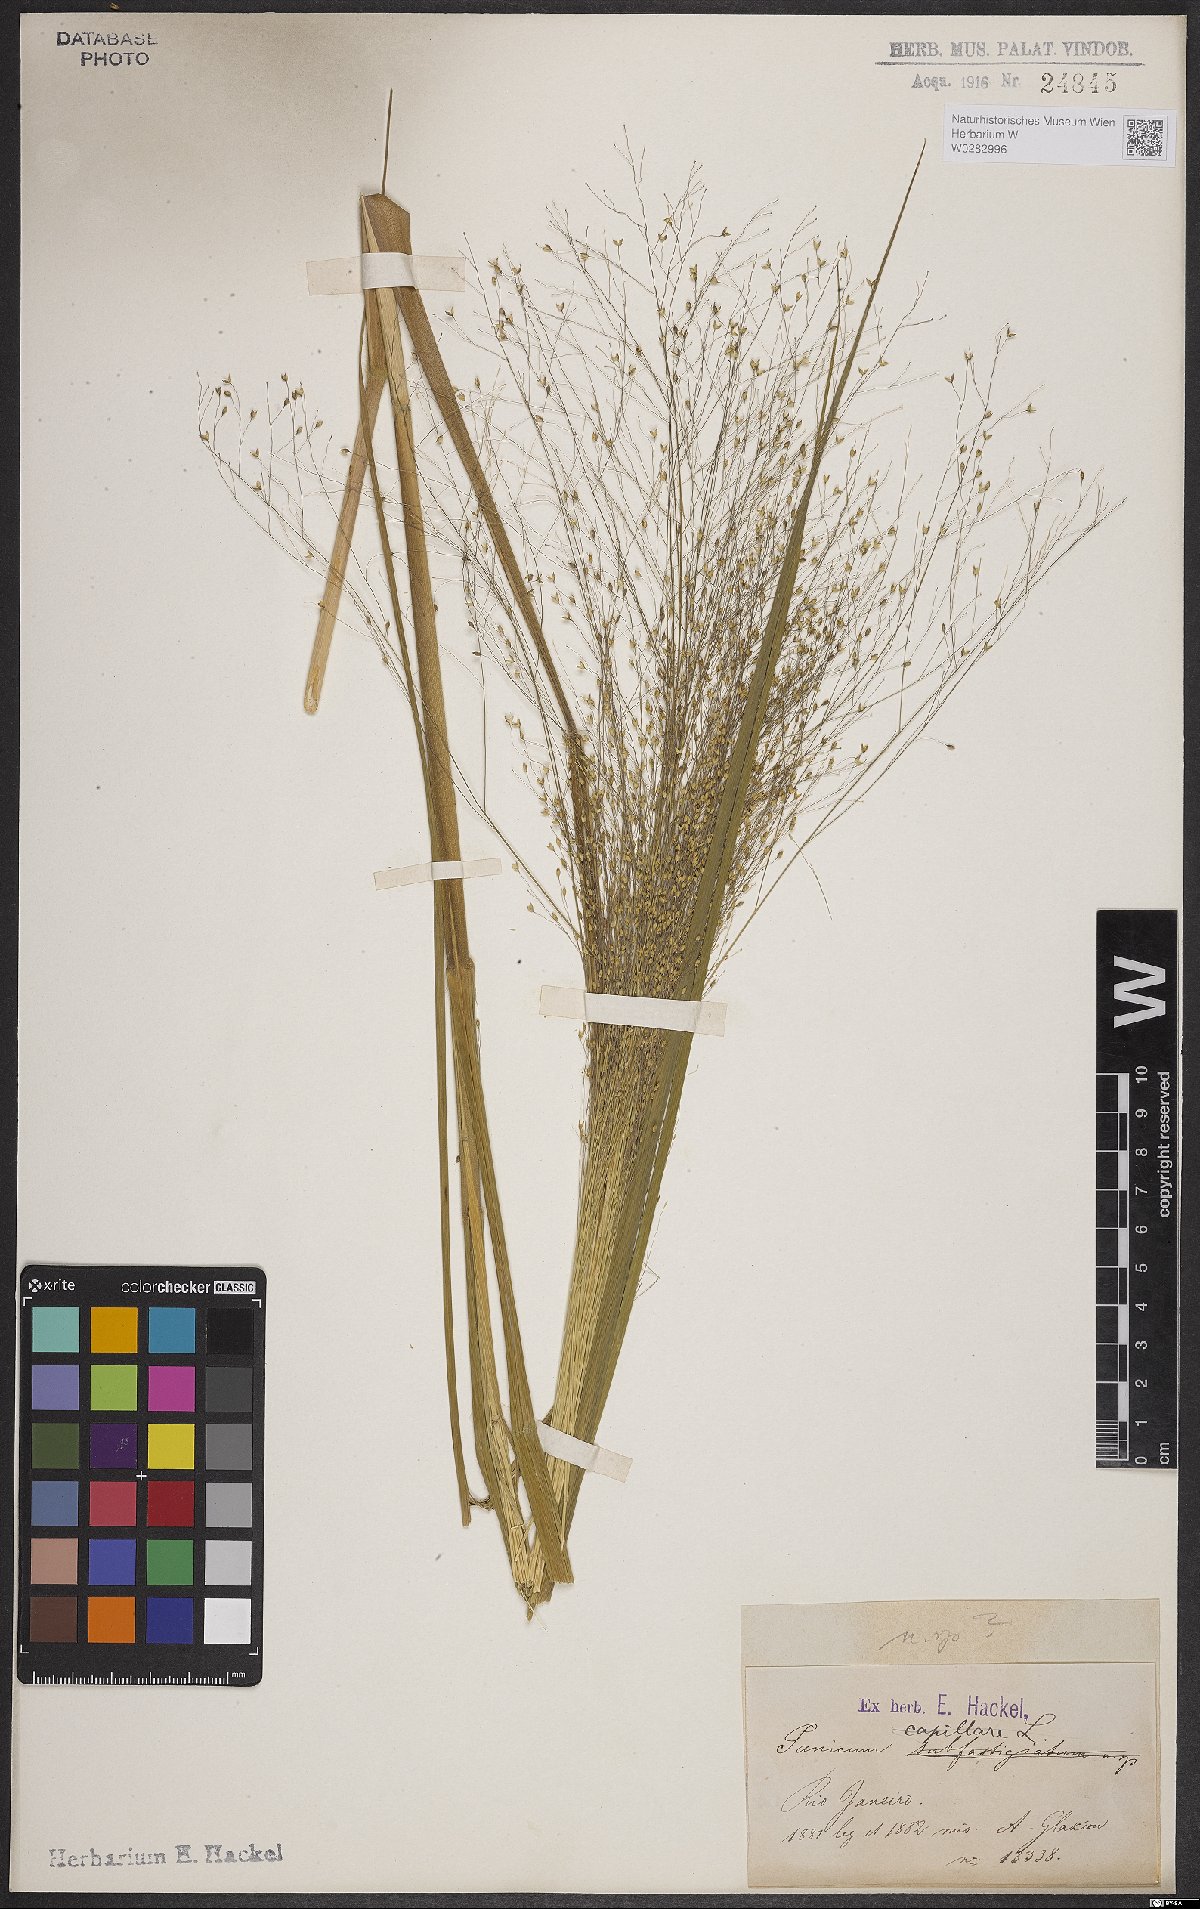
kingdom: Plantae
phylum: Tracheophyta
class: Liliopsida
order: Poales
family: Poaceae
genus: Panicum
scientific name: Panicum capillare
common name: Witch-grass
